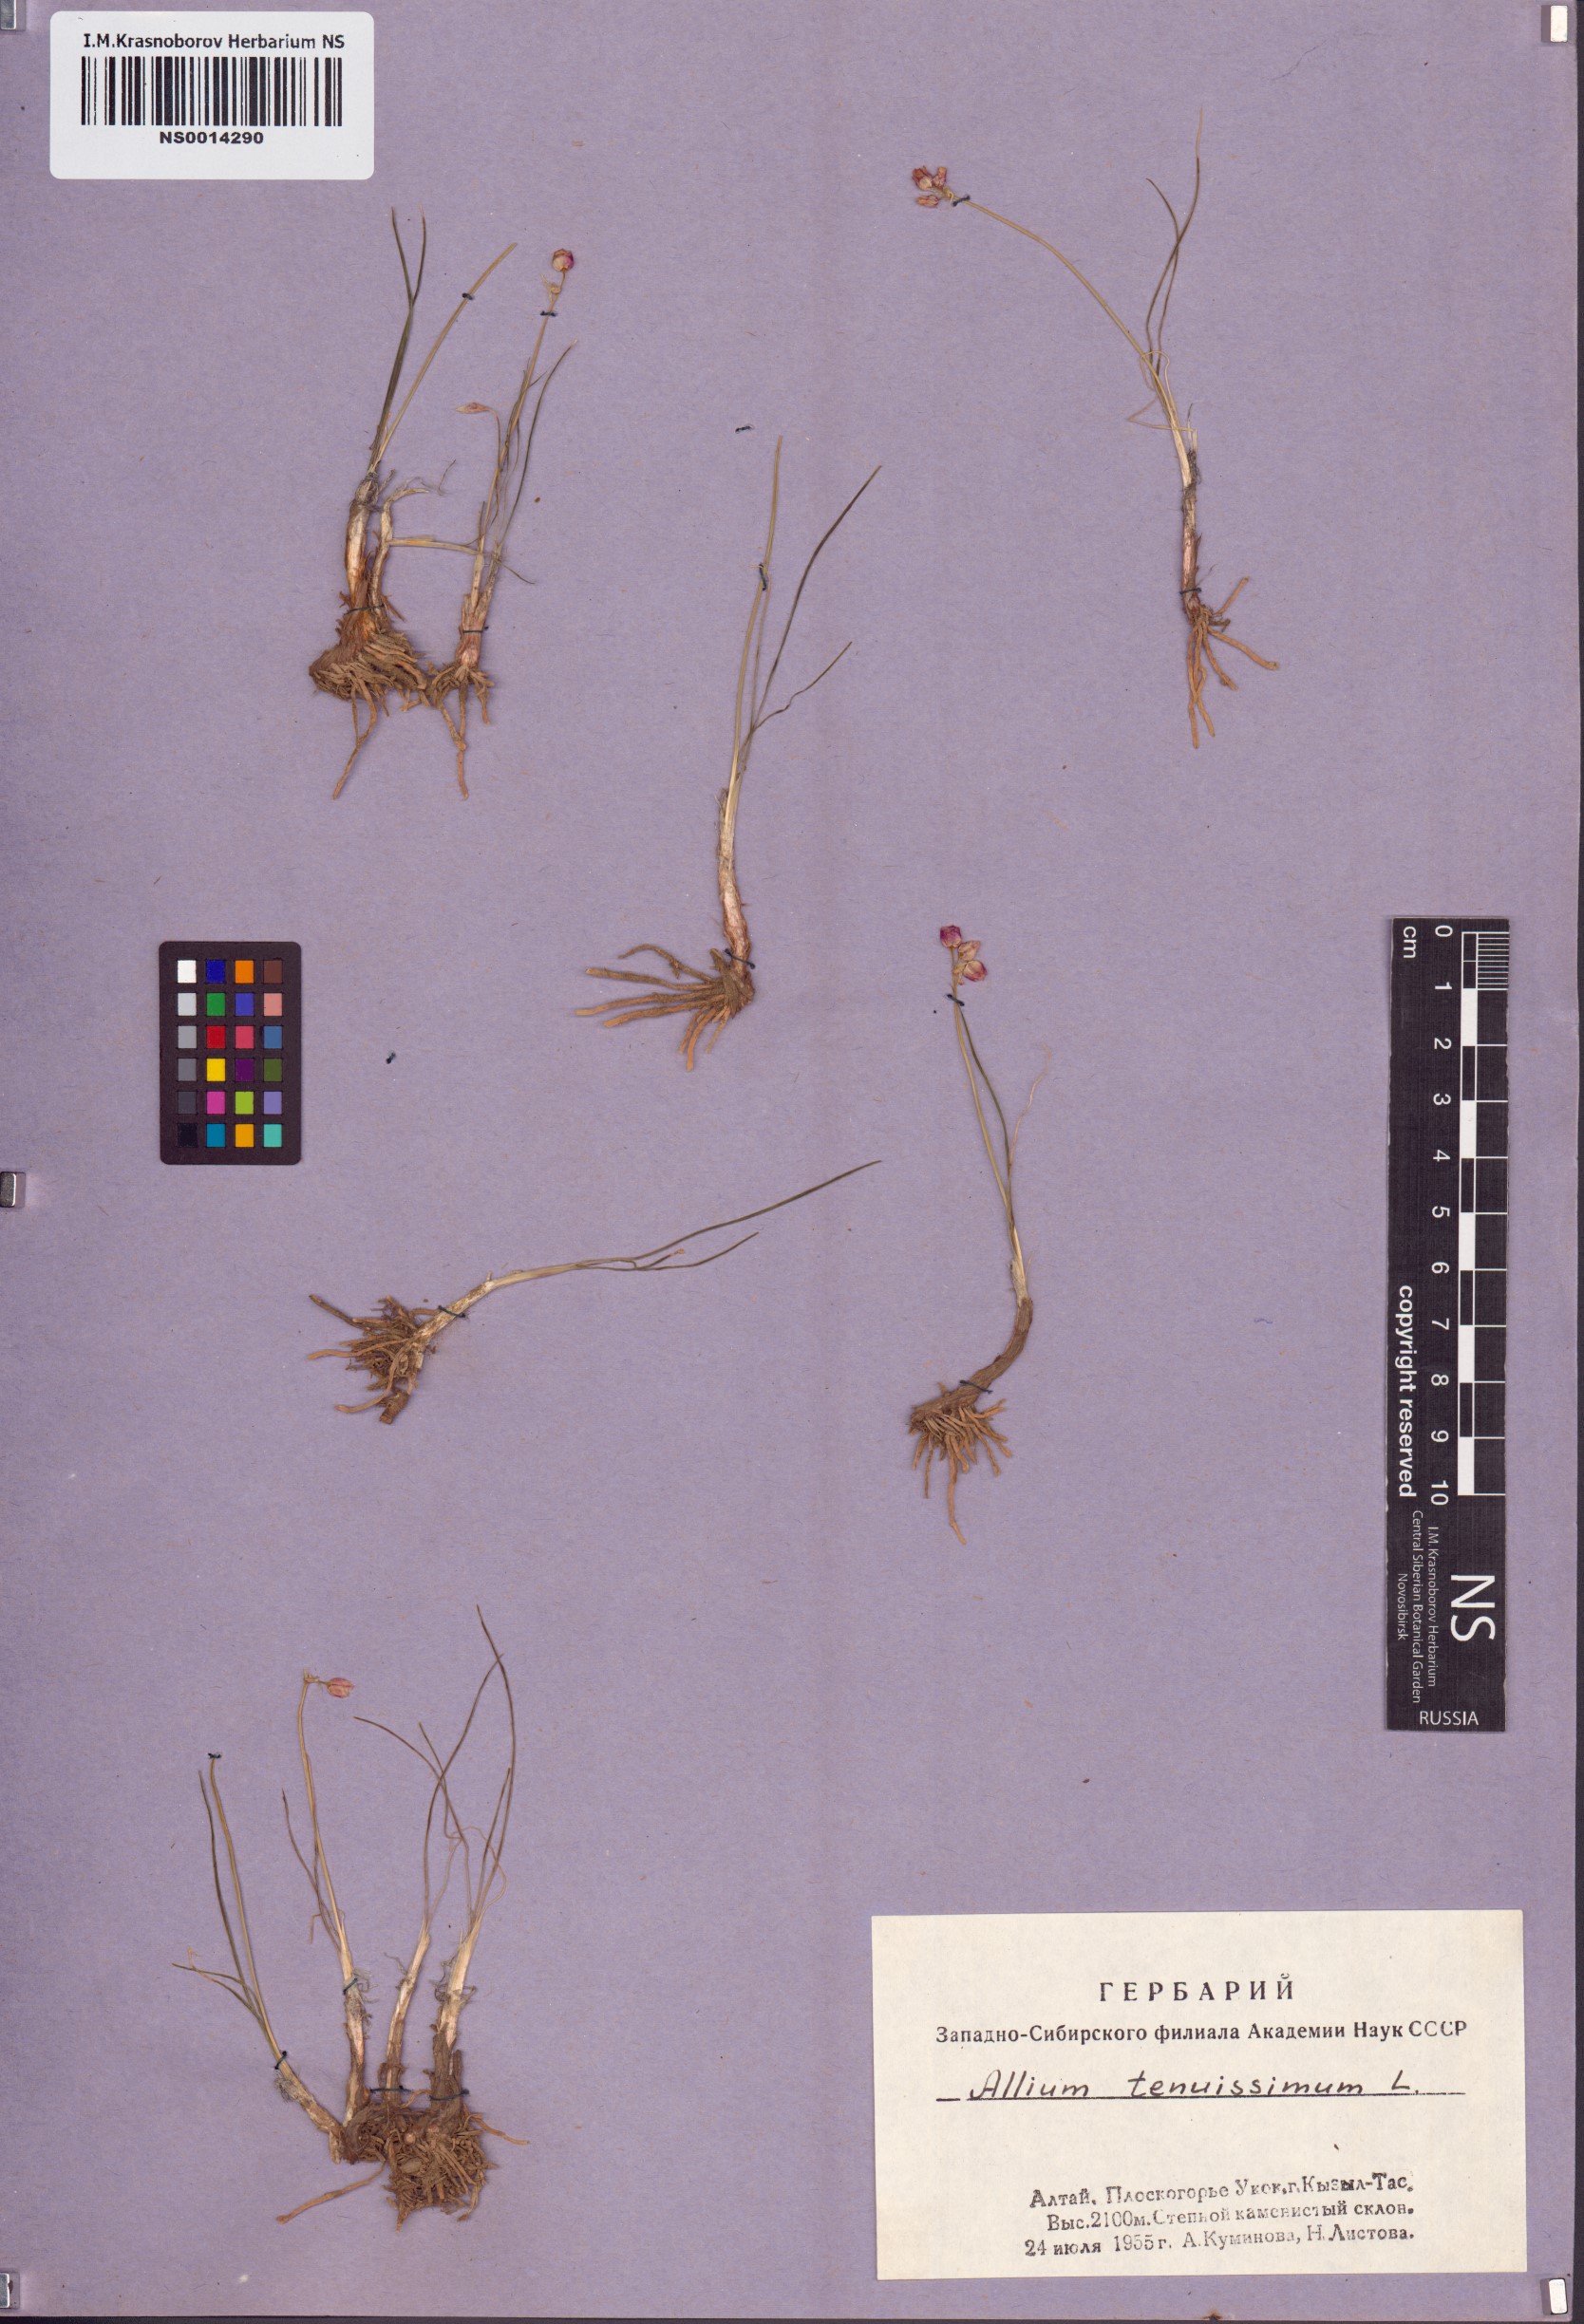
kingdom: Plantae
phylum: Tracheophyta
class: Liliopsida
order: Asparagales
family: Amaryllidaceae
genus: Allium
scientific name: Allium tenuissimum
